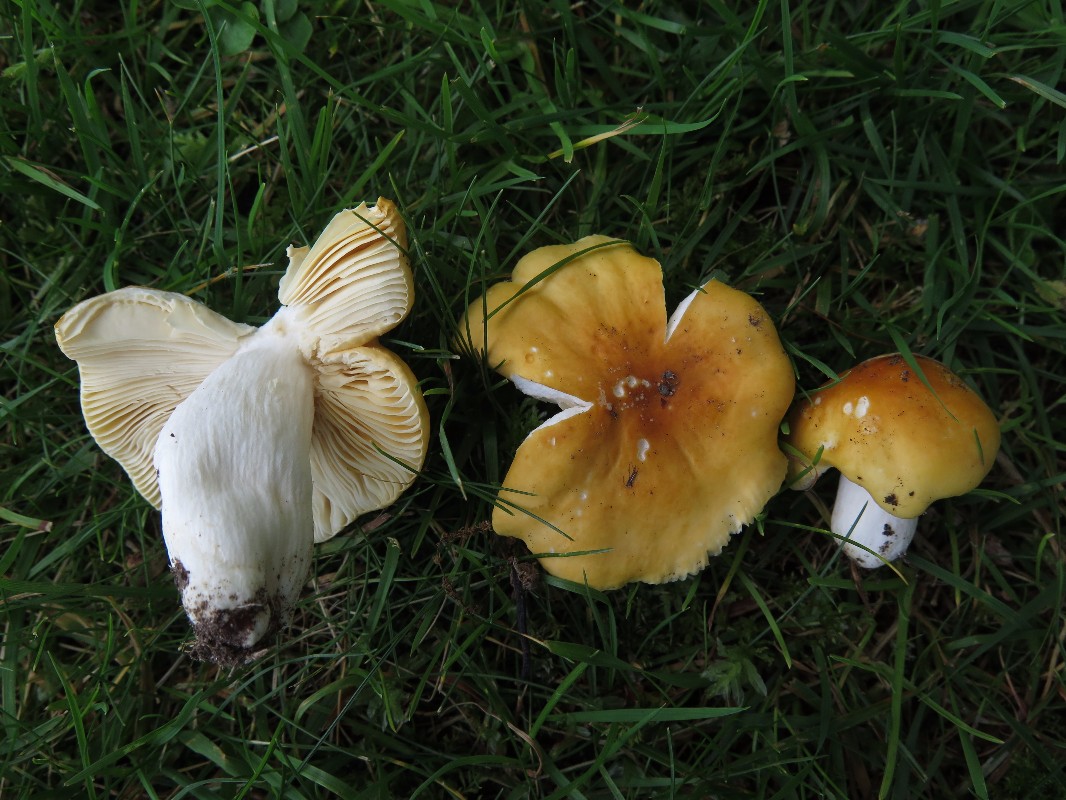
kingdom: Fungi
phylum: Basidiomycota
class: Agaricomycetes
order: Russulales
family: Russulaceae
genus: Russula
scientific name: Russula risigallina
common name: abrikos-skørhat
